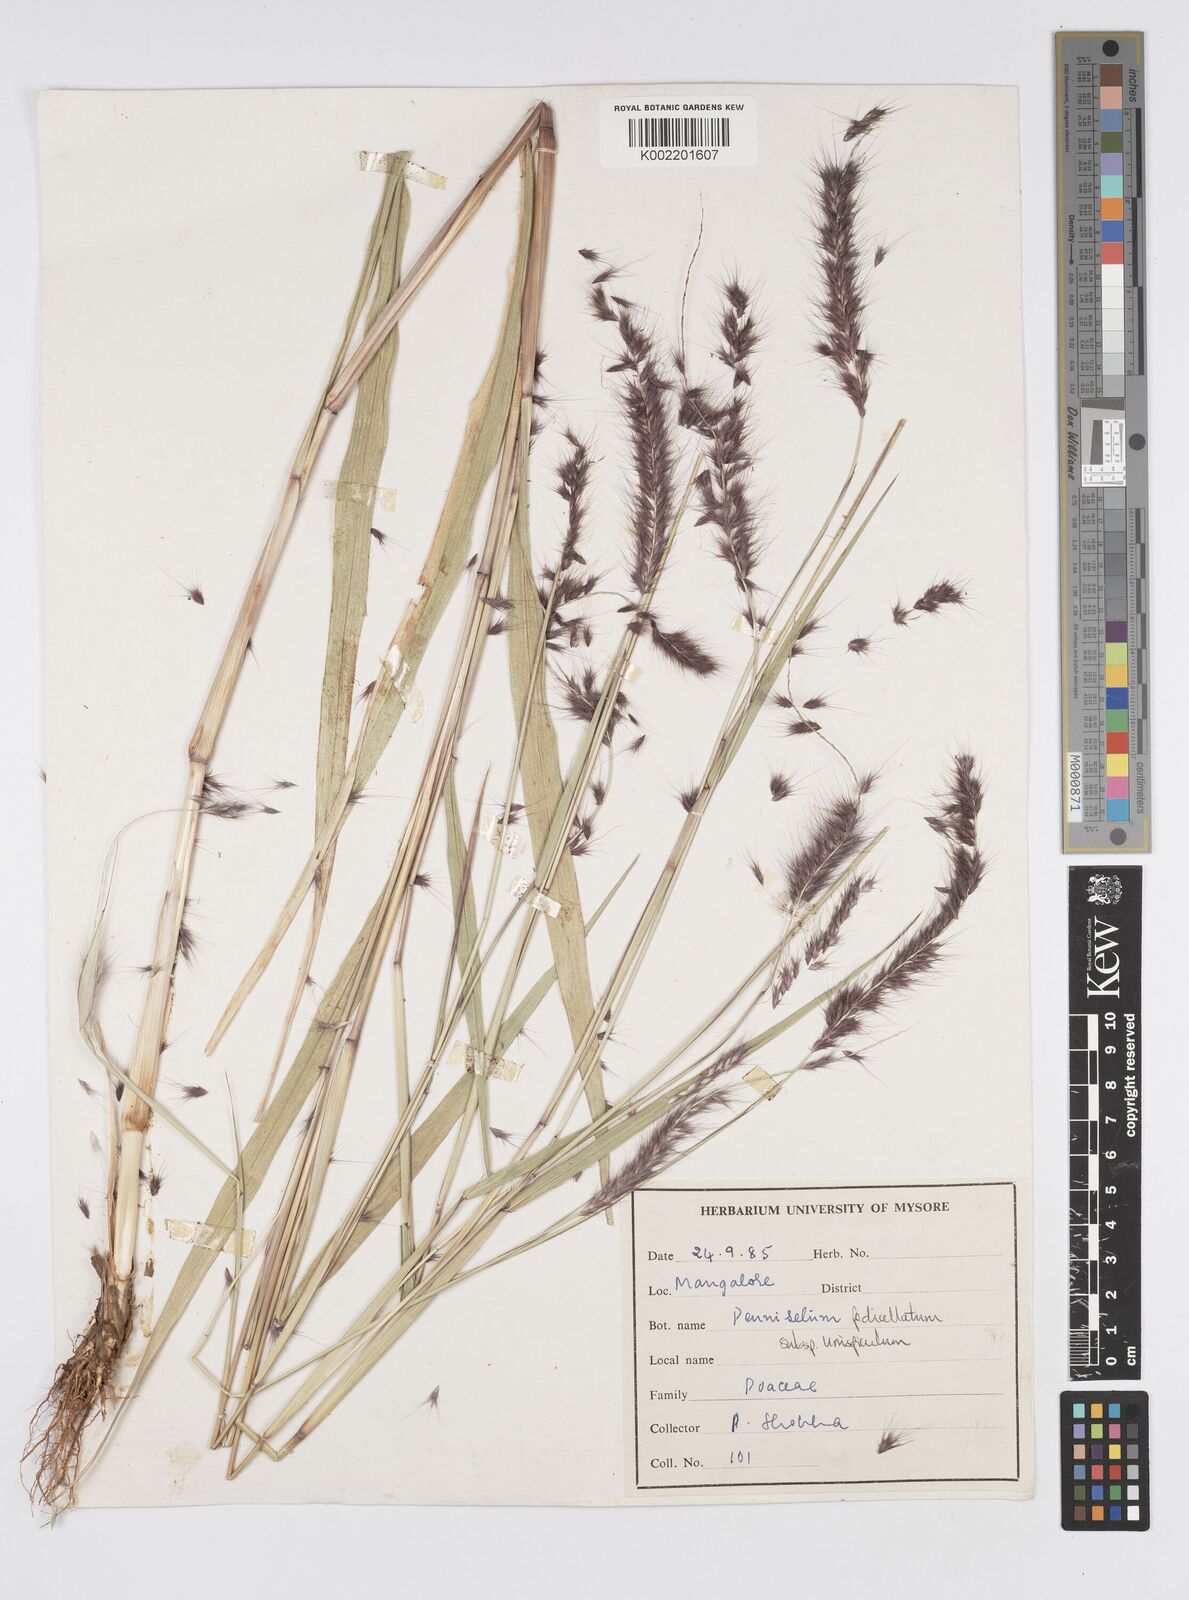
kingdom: Plantae
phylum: Tracheophyta
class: Liliopsida
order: Poales
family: Poaceae
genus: Cenchrus
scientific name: Cenchrus pedicellatus
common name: Hairy fountain grass
